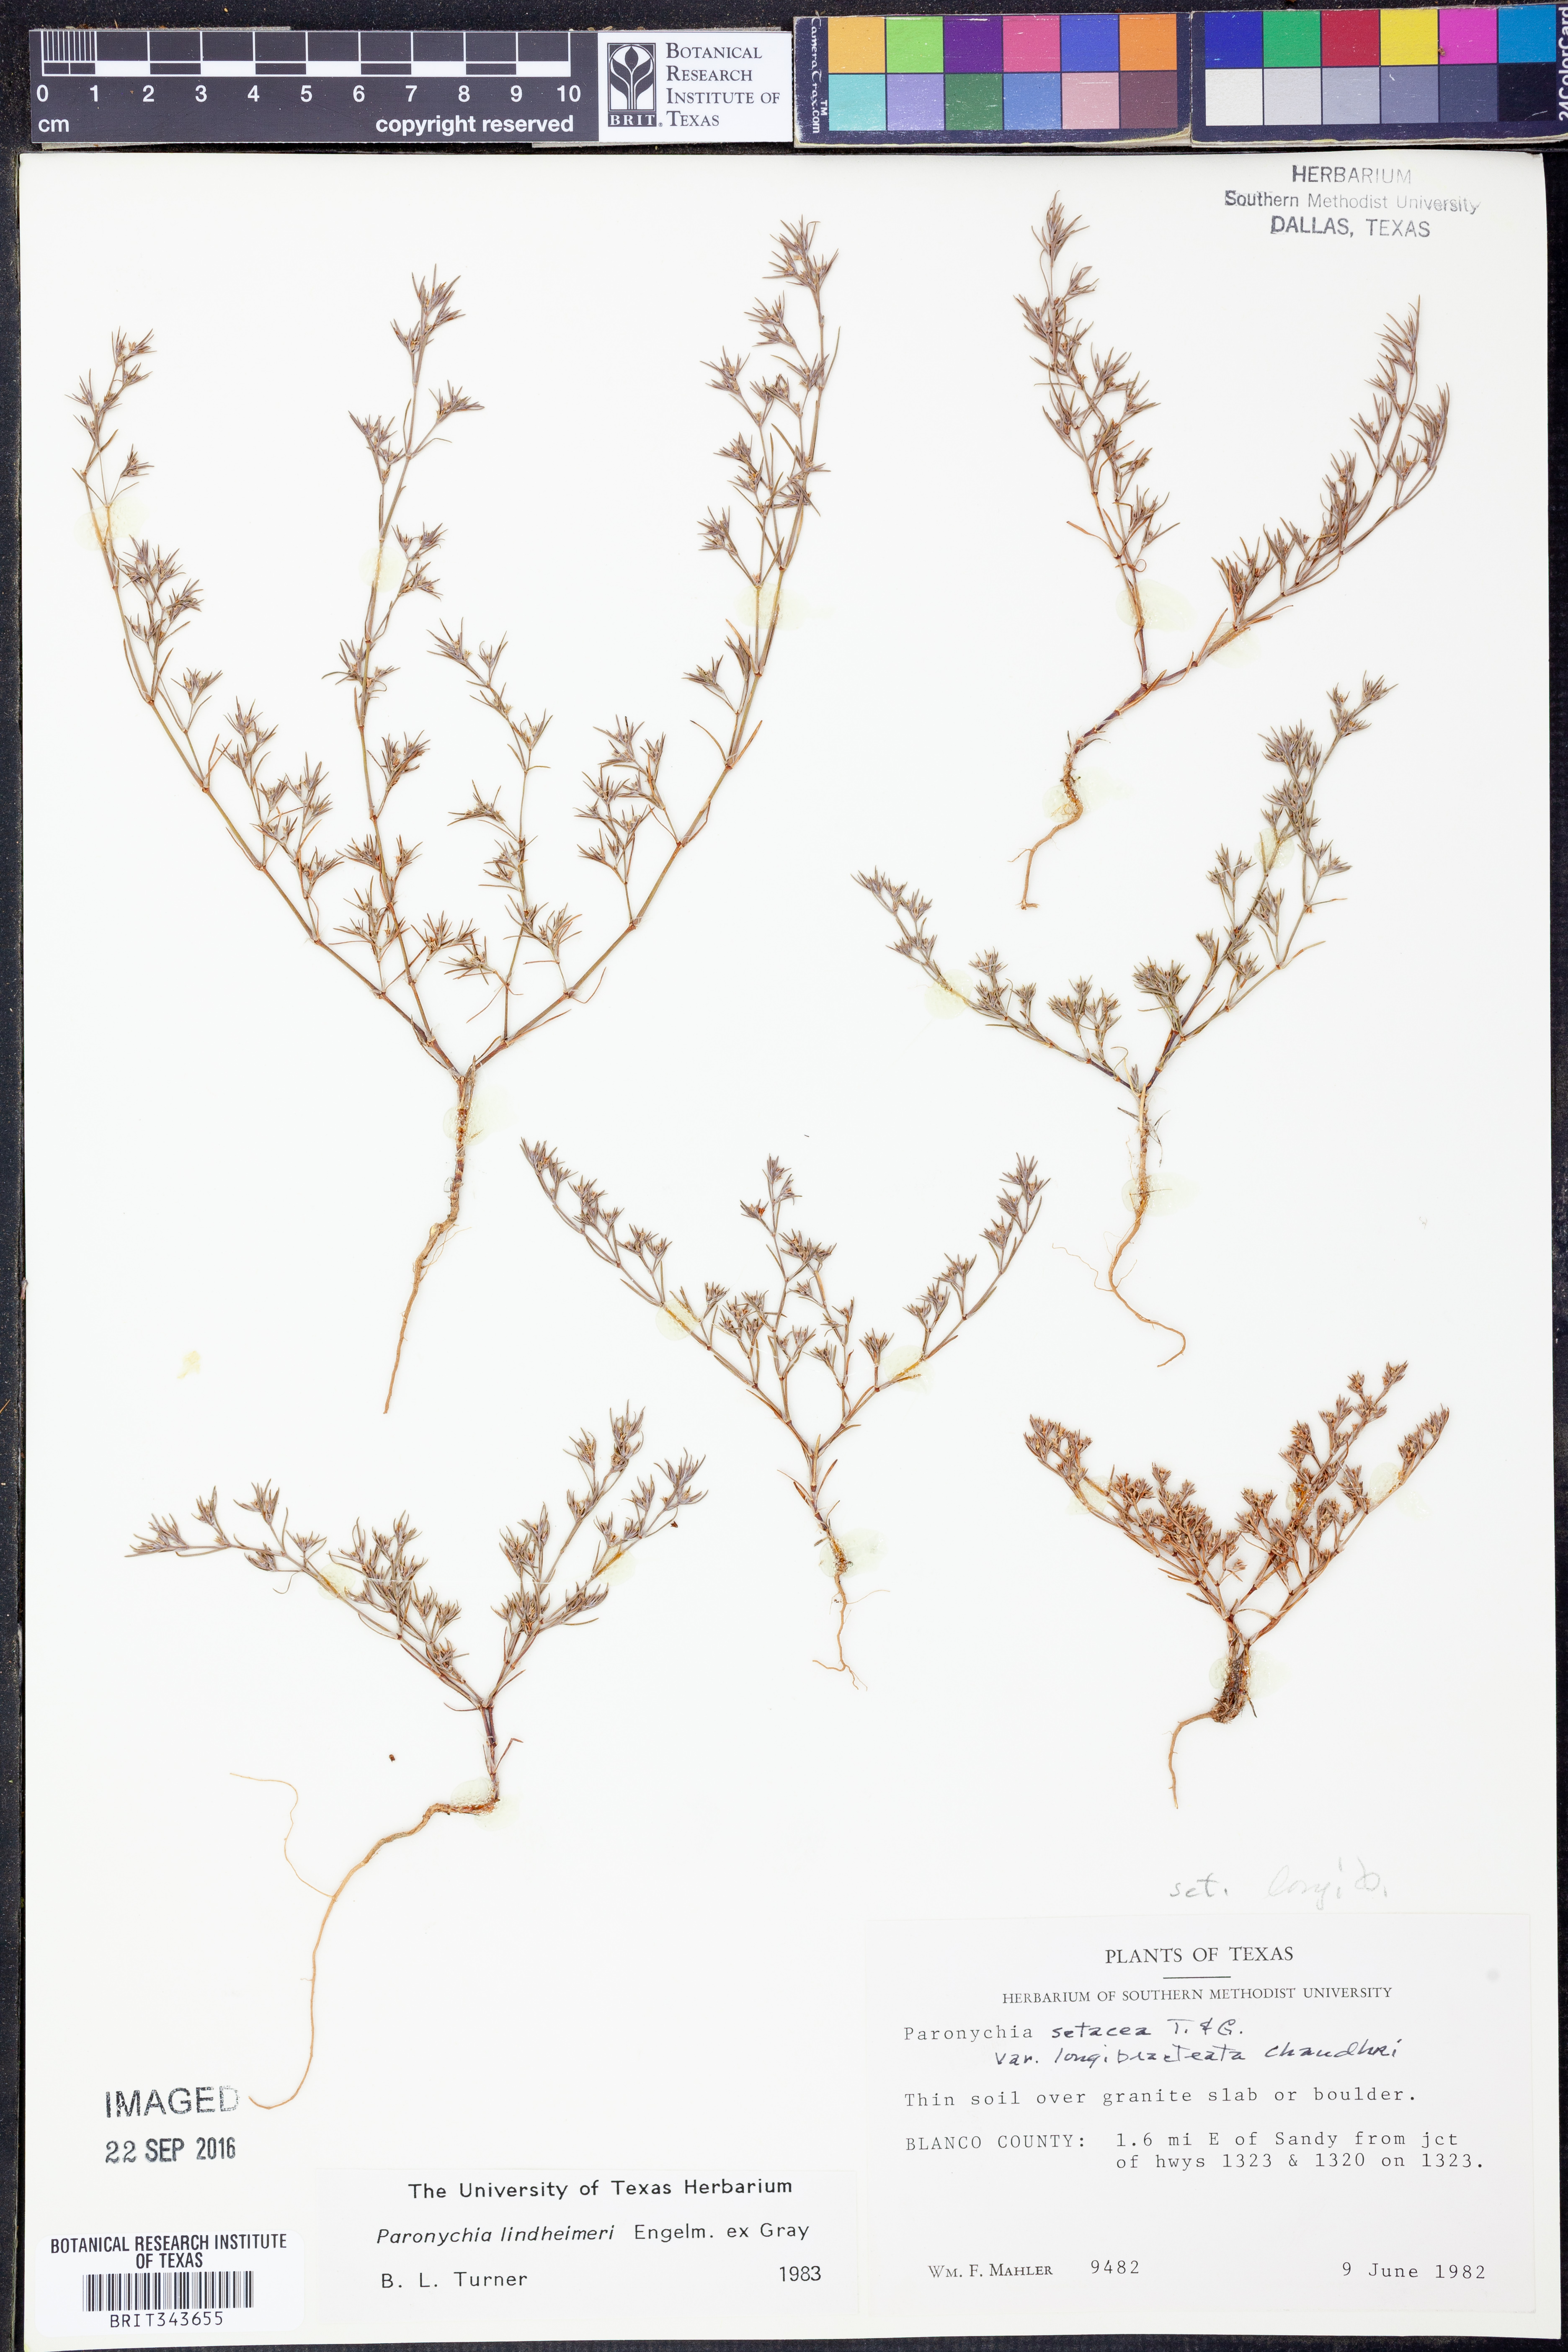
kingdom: Plantae
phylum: Tracheophyta
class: Magnoliopsida
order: Caryophyllales
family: Caryophyllaceae
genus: Paronychia
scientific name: Paronychia lindheimeri
